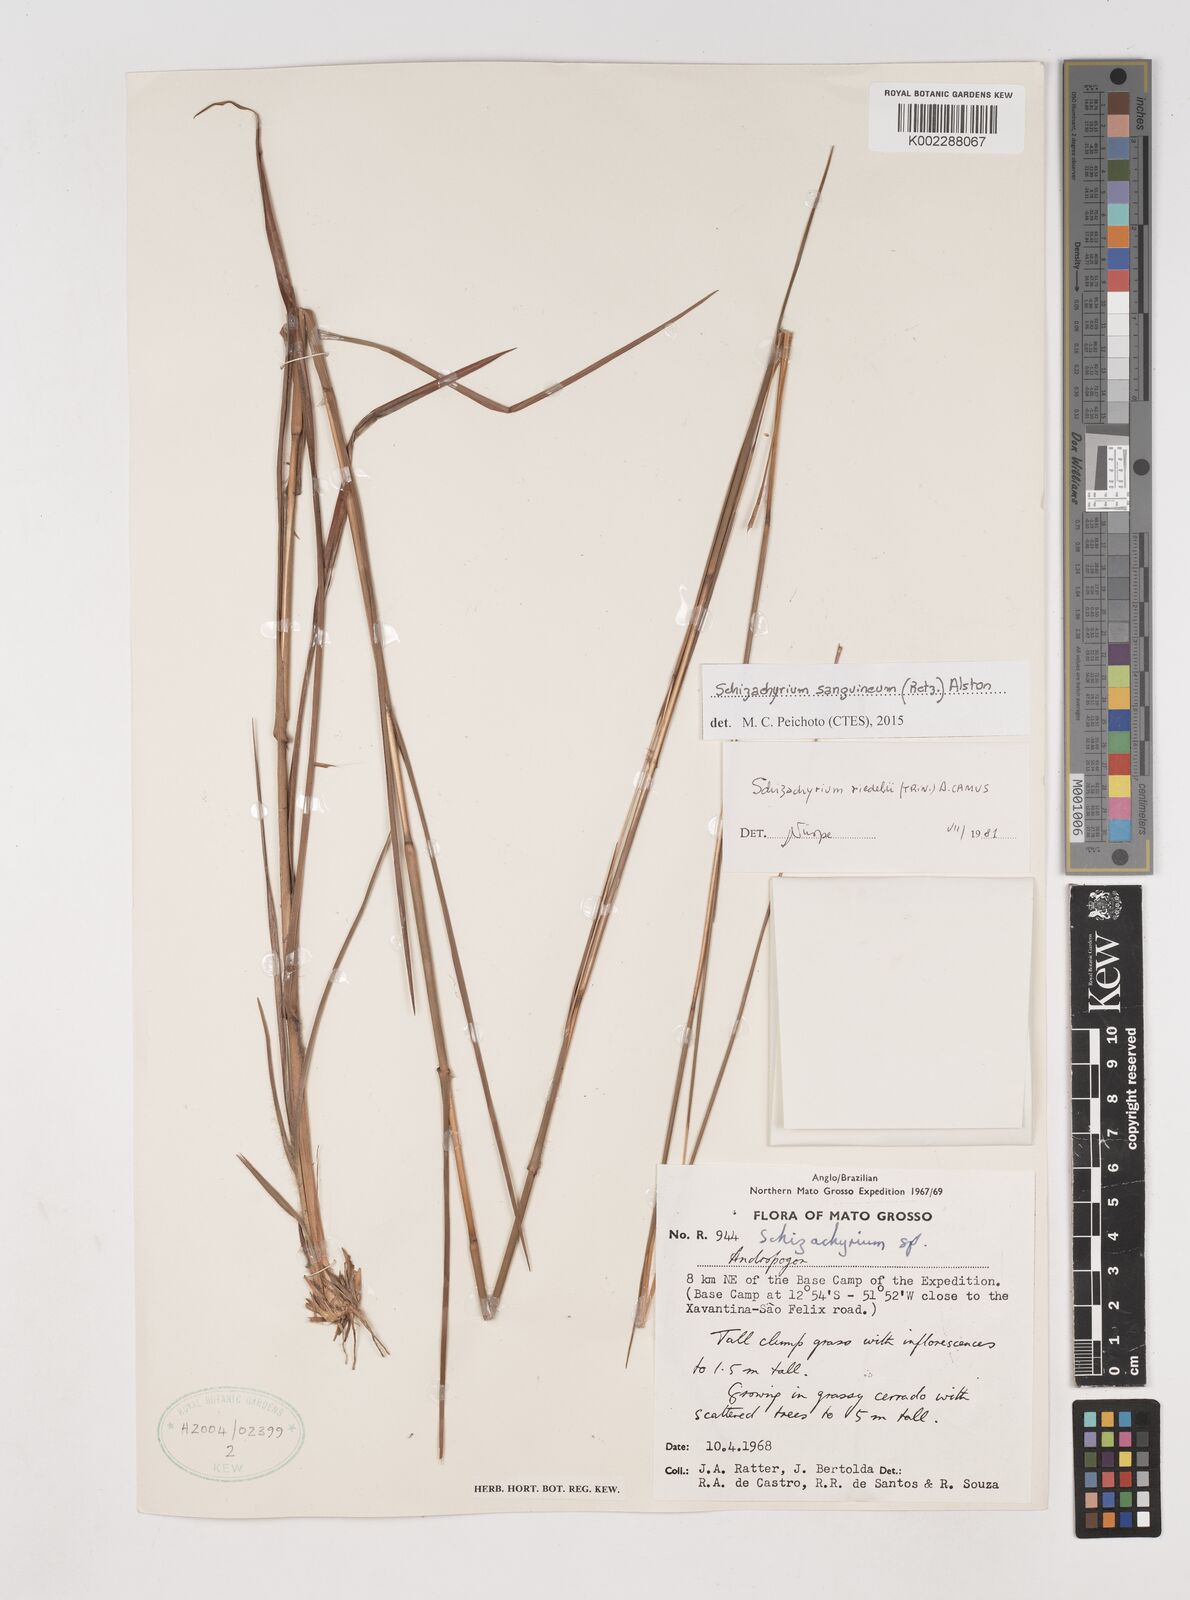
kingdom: Plantae
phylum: Tracheophyta
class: Liliopsida
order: Poales
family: Poaceae
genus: Schizachyrium
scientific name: Schizachyrium sanguineum
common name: Crimson bluestem
